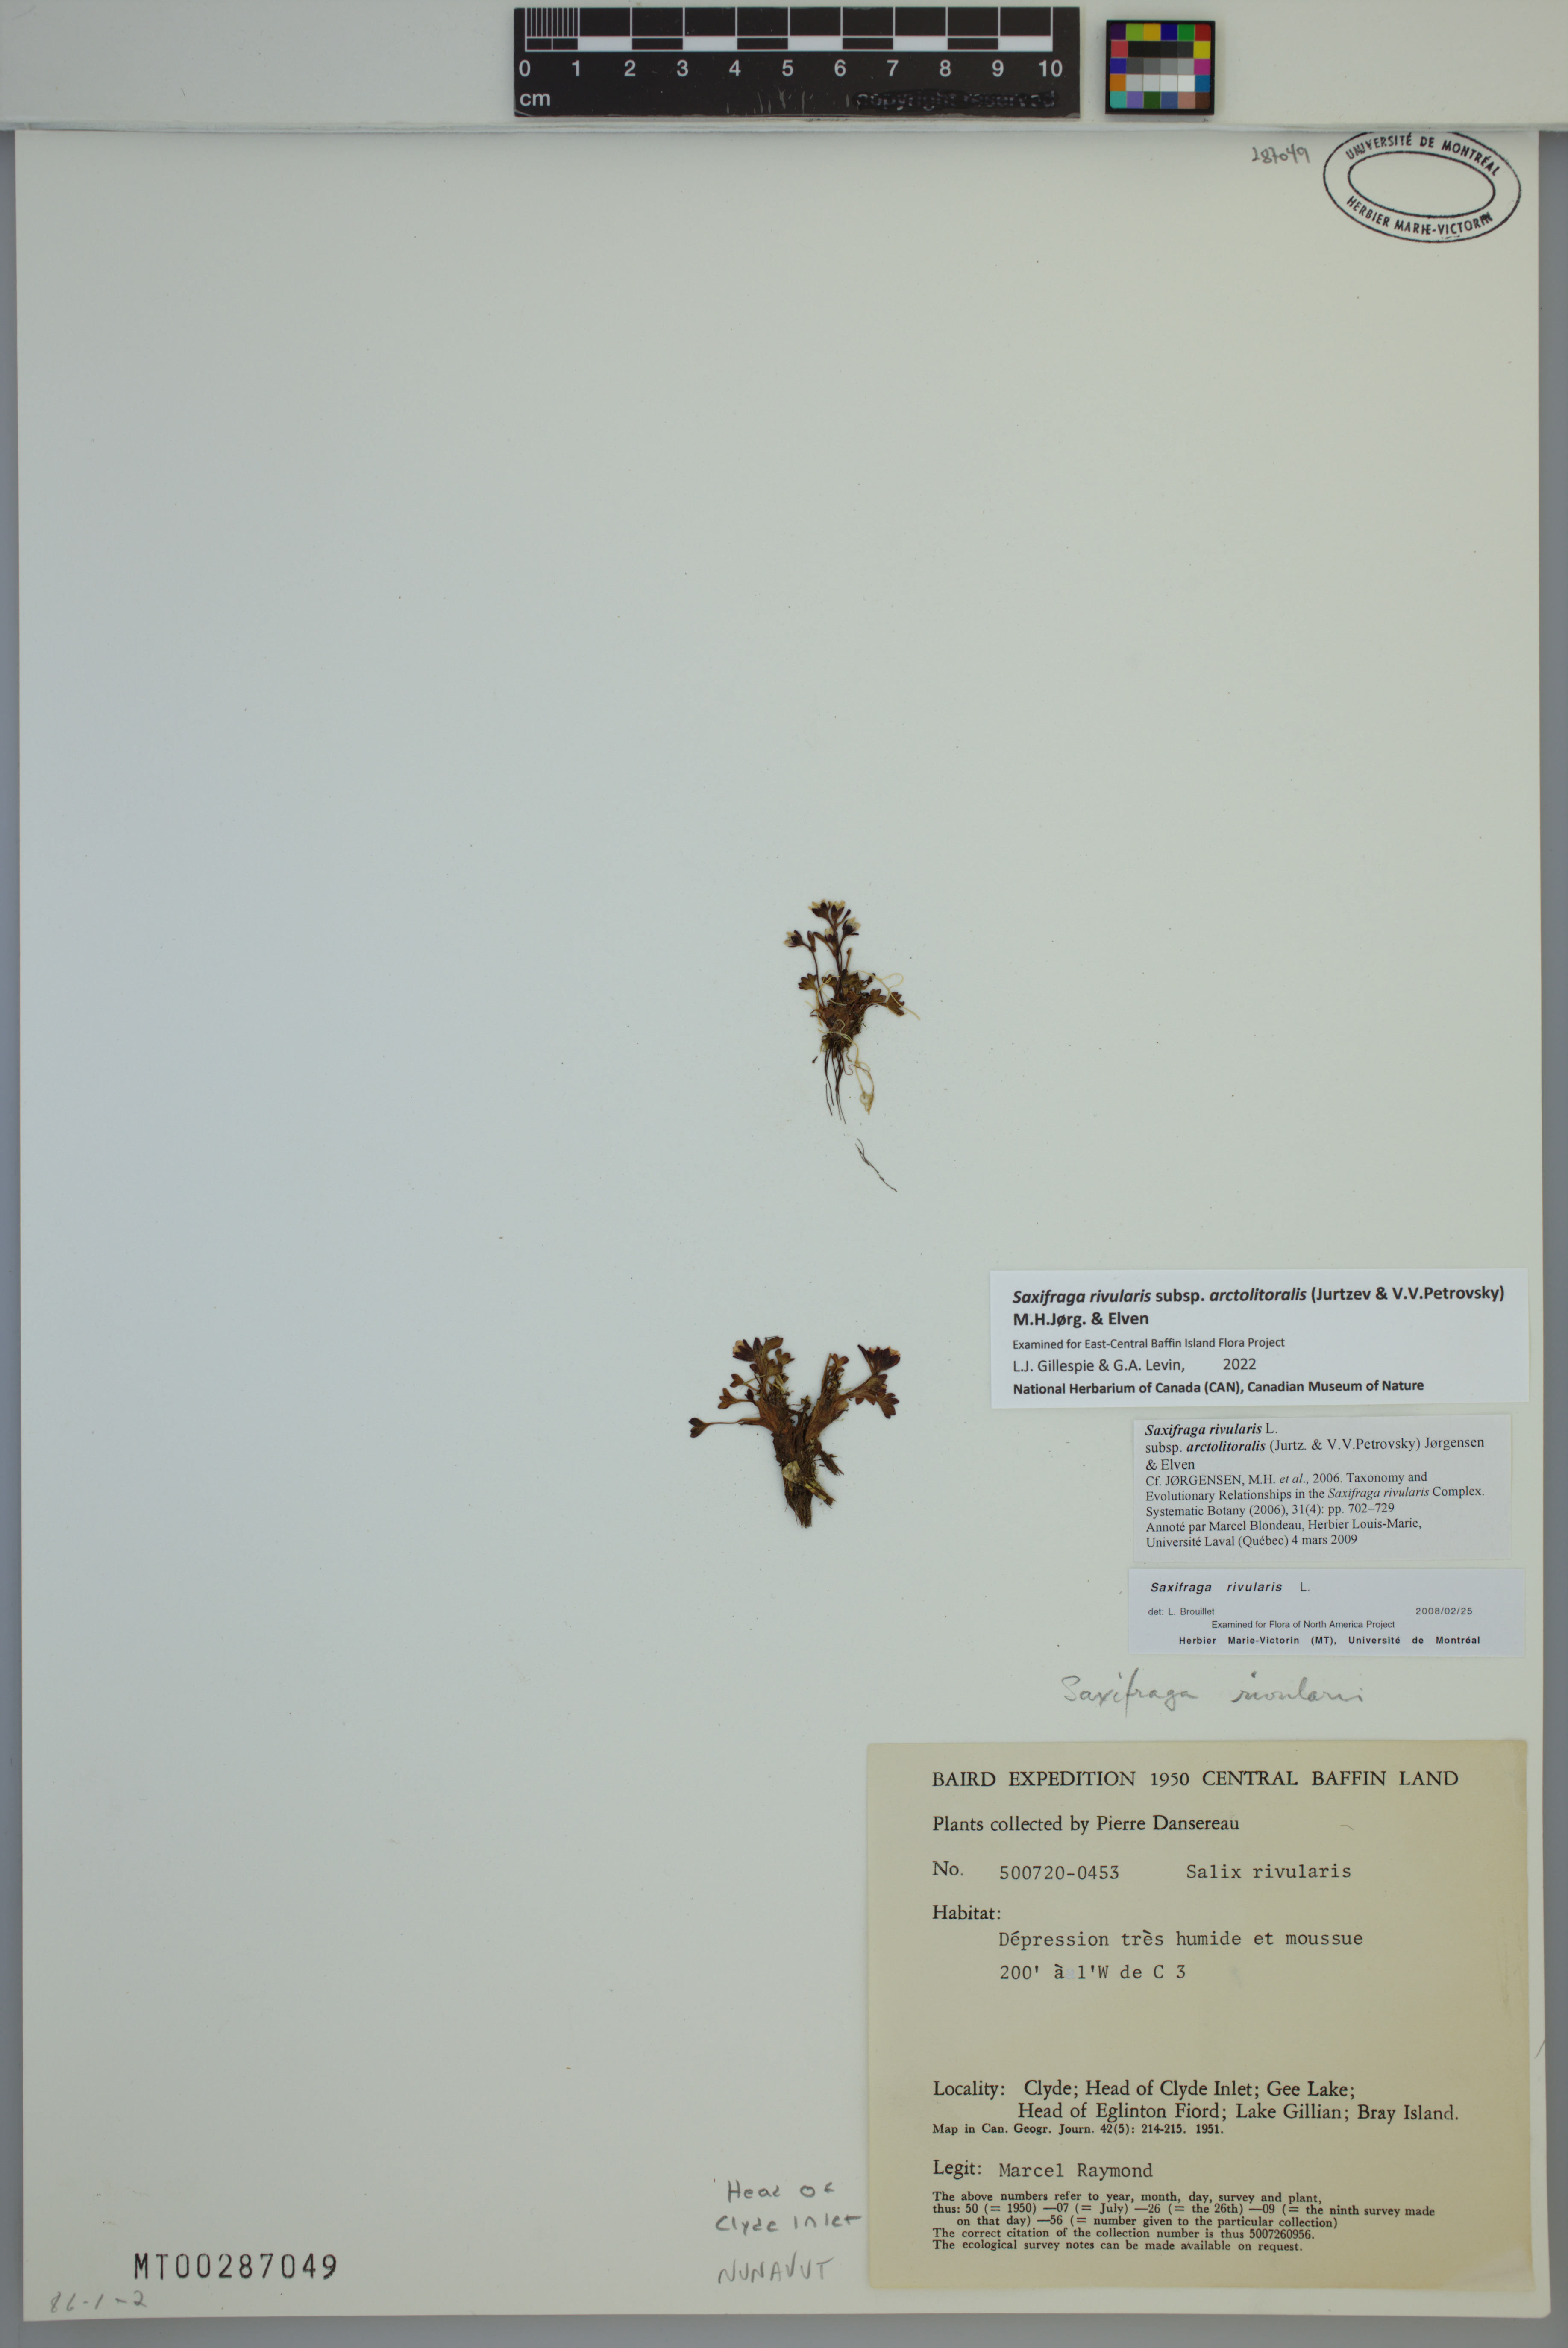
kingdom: Plantae
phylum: Tracheophyta
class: Magnoliopsida
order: Saxifragales
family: Saxifragaceae
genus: Saxifraga
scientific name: Saxifraga rivularis
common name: Highland saxifrage
